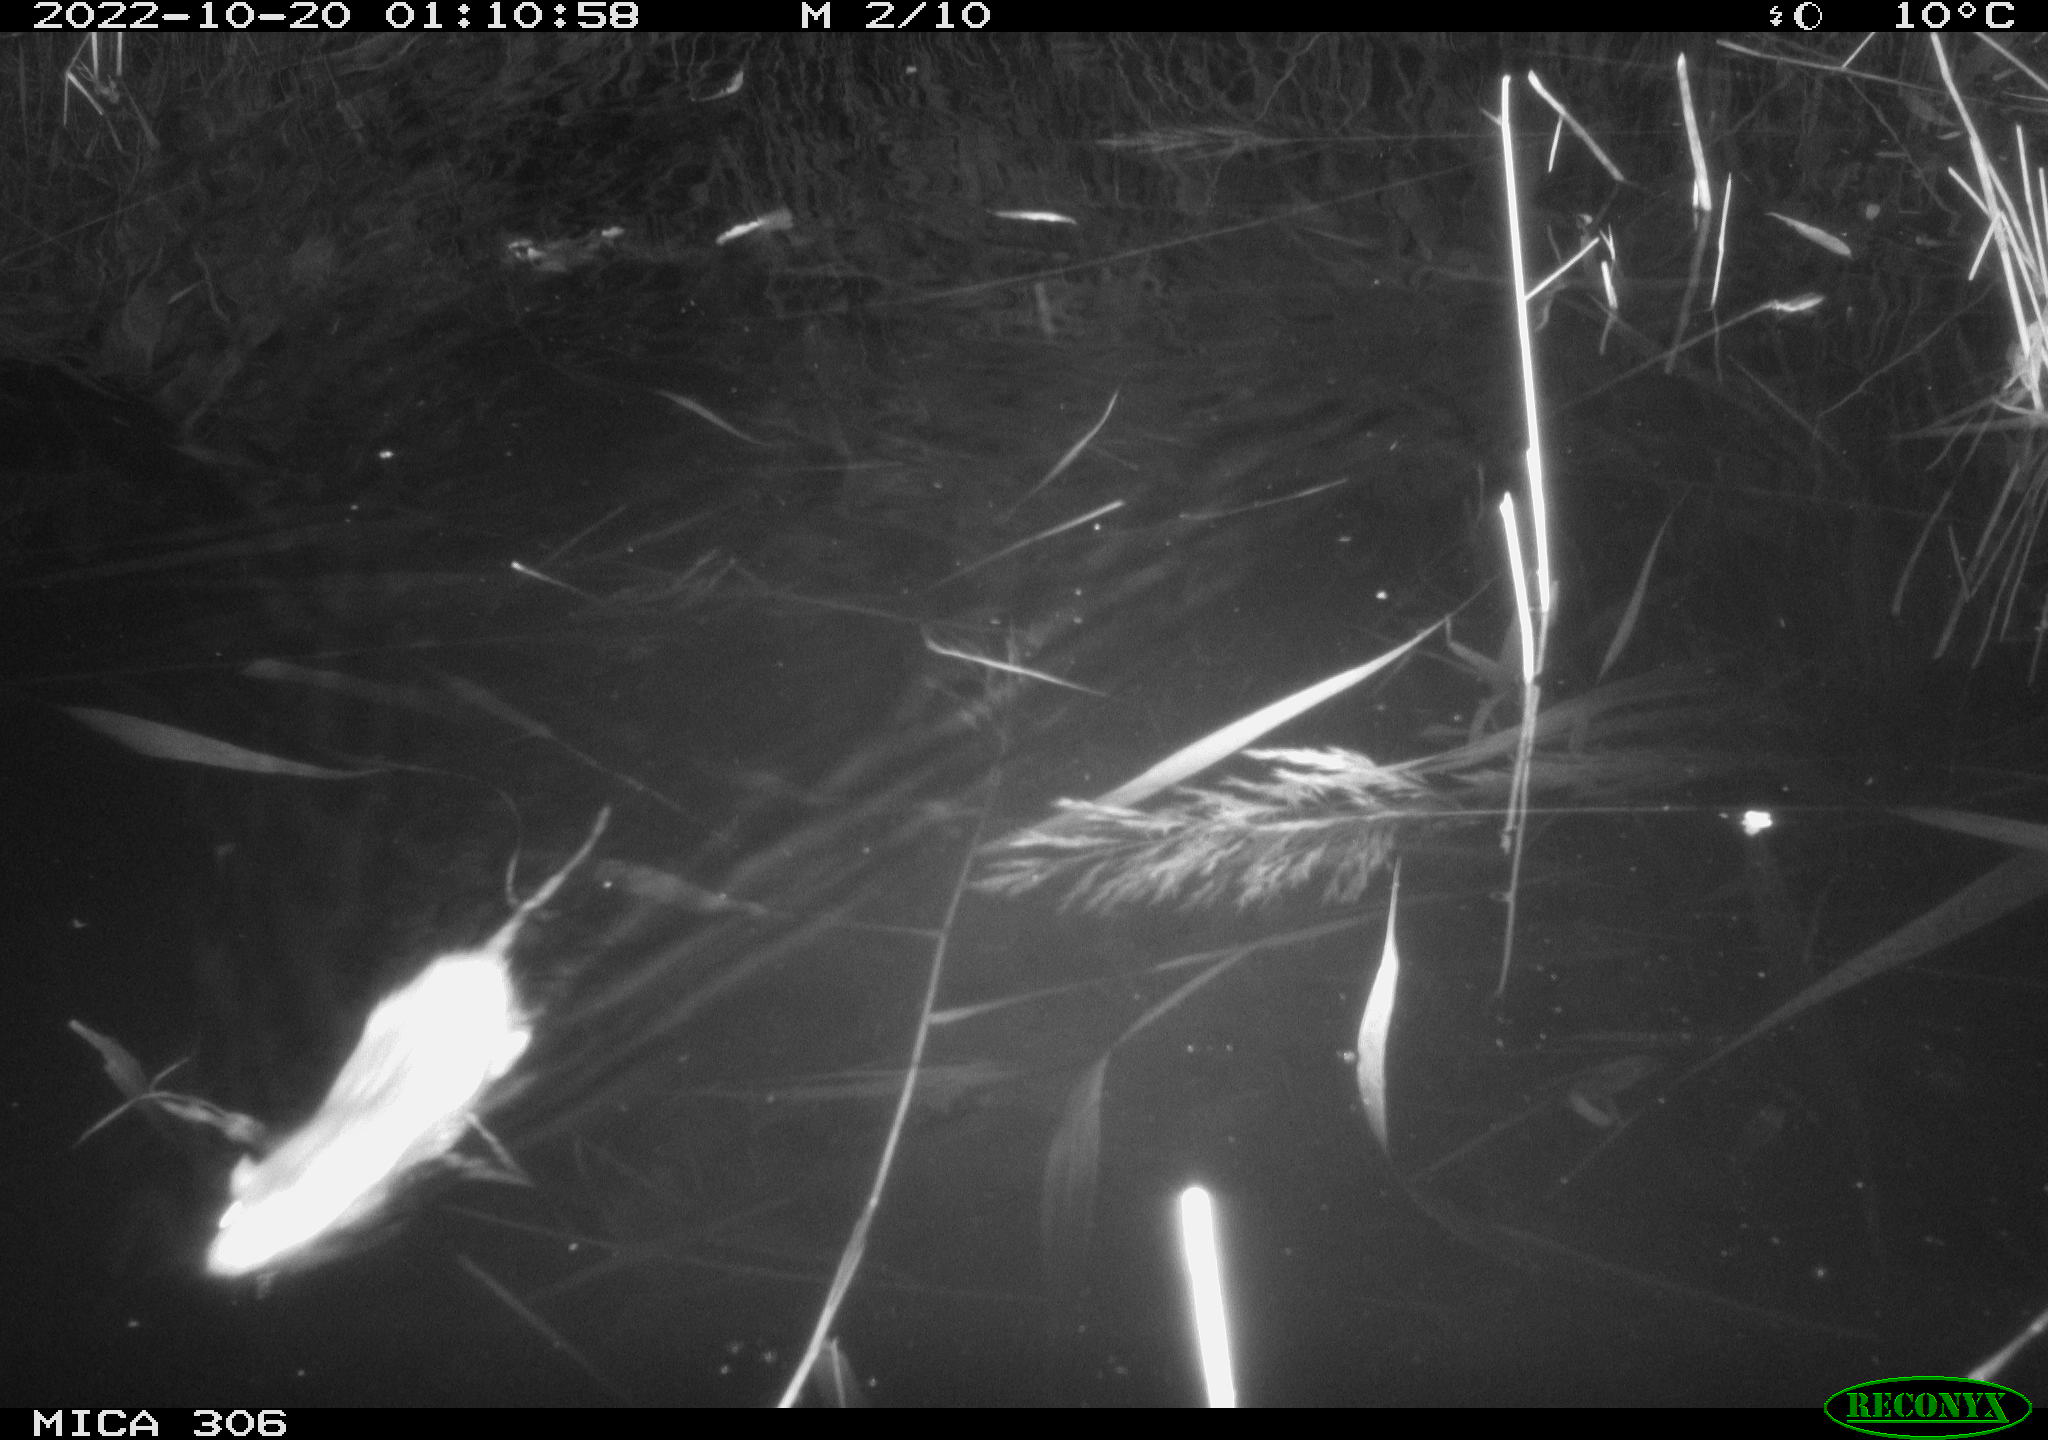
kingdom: Animalia
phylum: Chordata
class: Mammalia
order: Rodentia
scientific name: Rodentia
